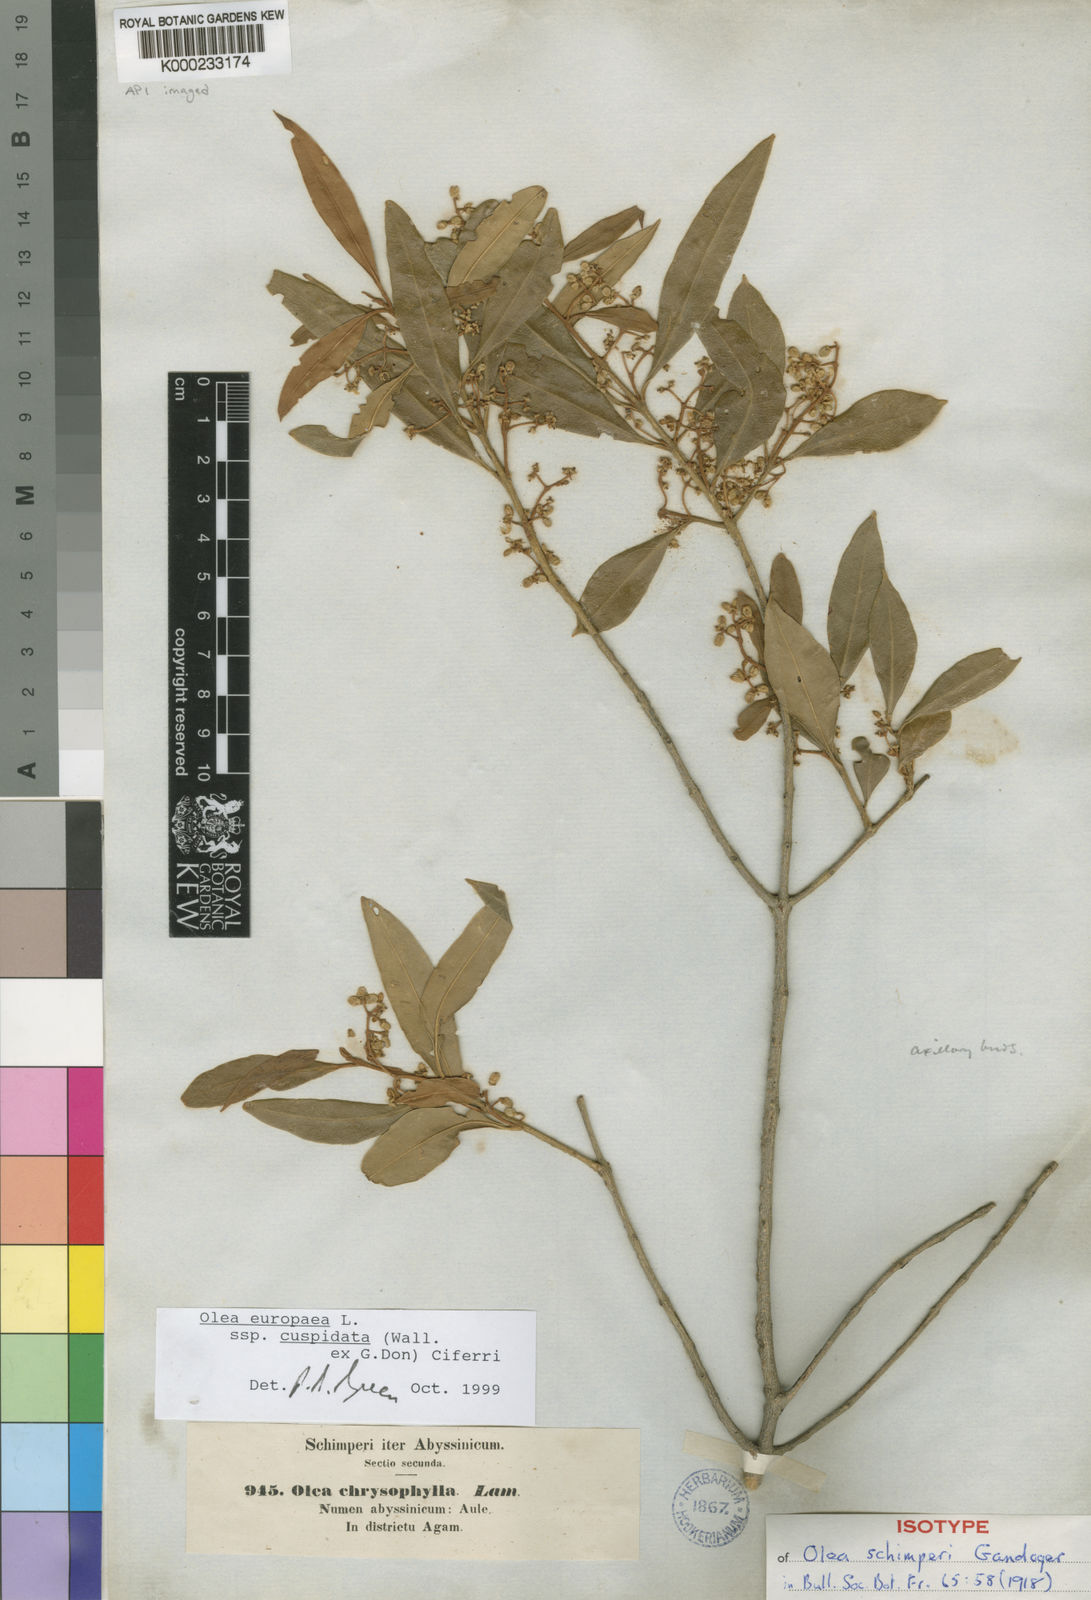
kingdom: Plantae
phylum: Tracheophyta
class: Magnoliopsida
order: Lamiales
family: Oleaceae
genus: Olea
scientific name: Olea europaea
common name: Olive
